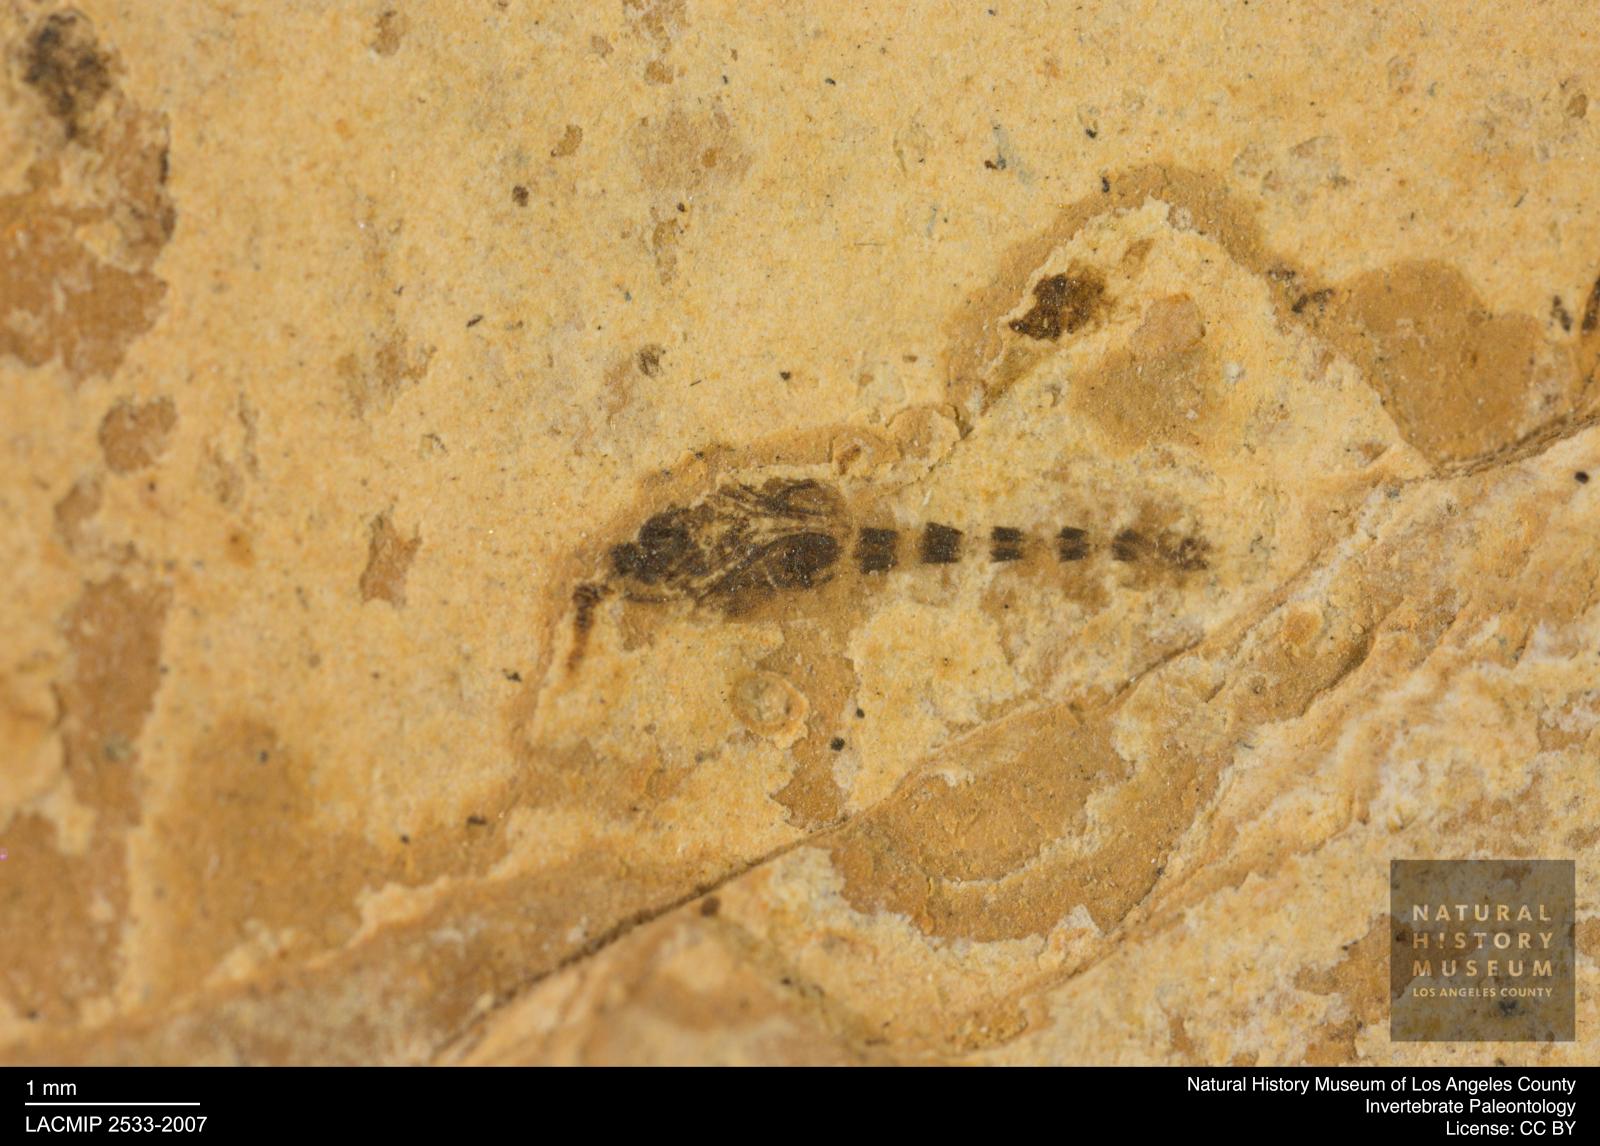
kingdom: Animalia
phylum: Arthropoda
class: Insecta
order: Diptera
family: Ceratopogonidae
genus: Ceratopogon
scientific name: Ceratopogon
